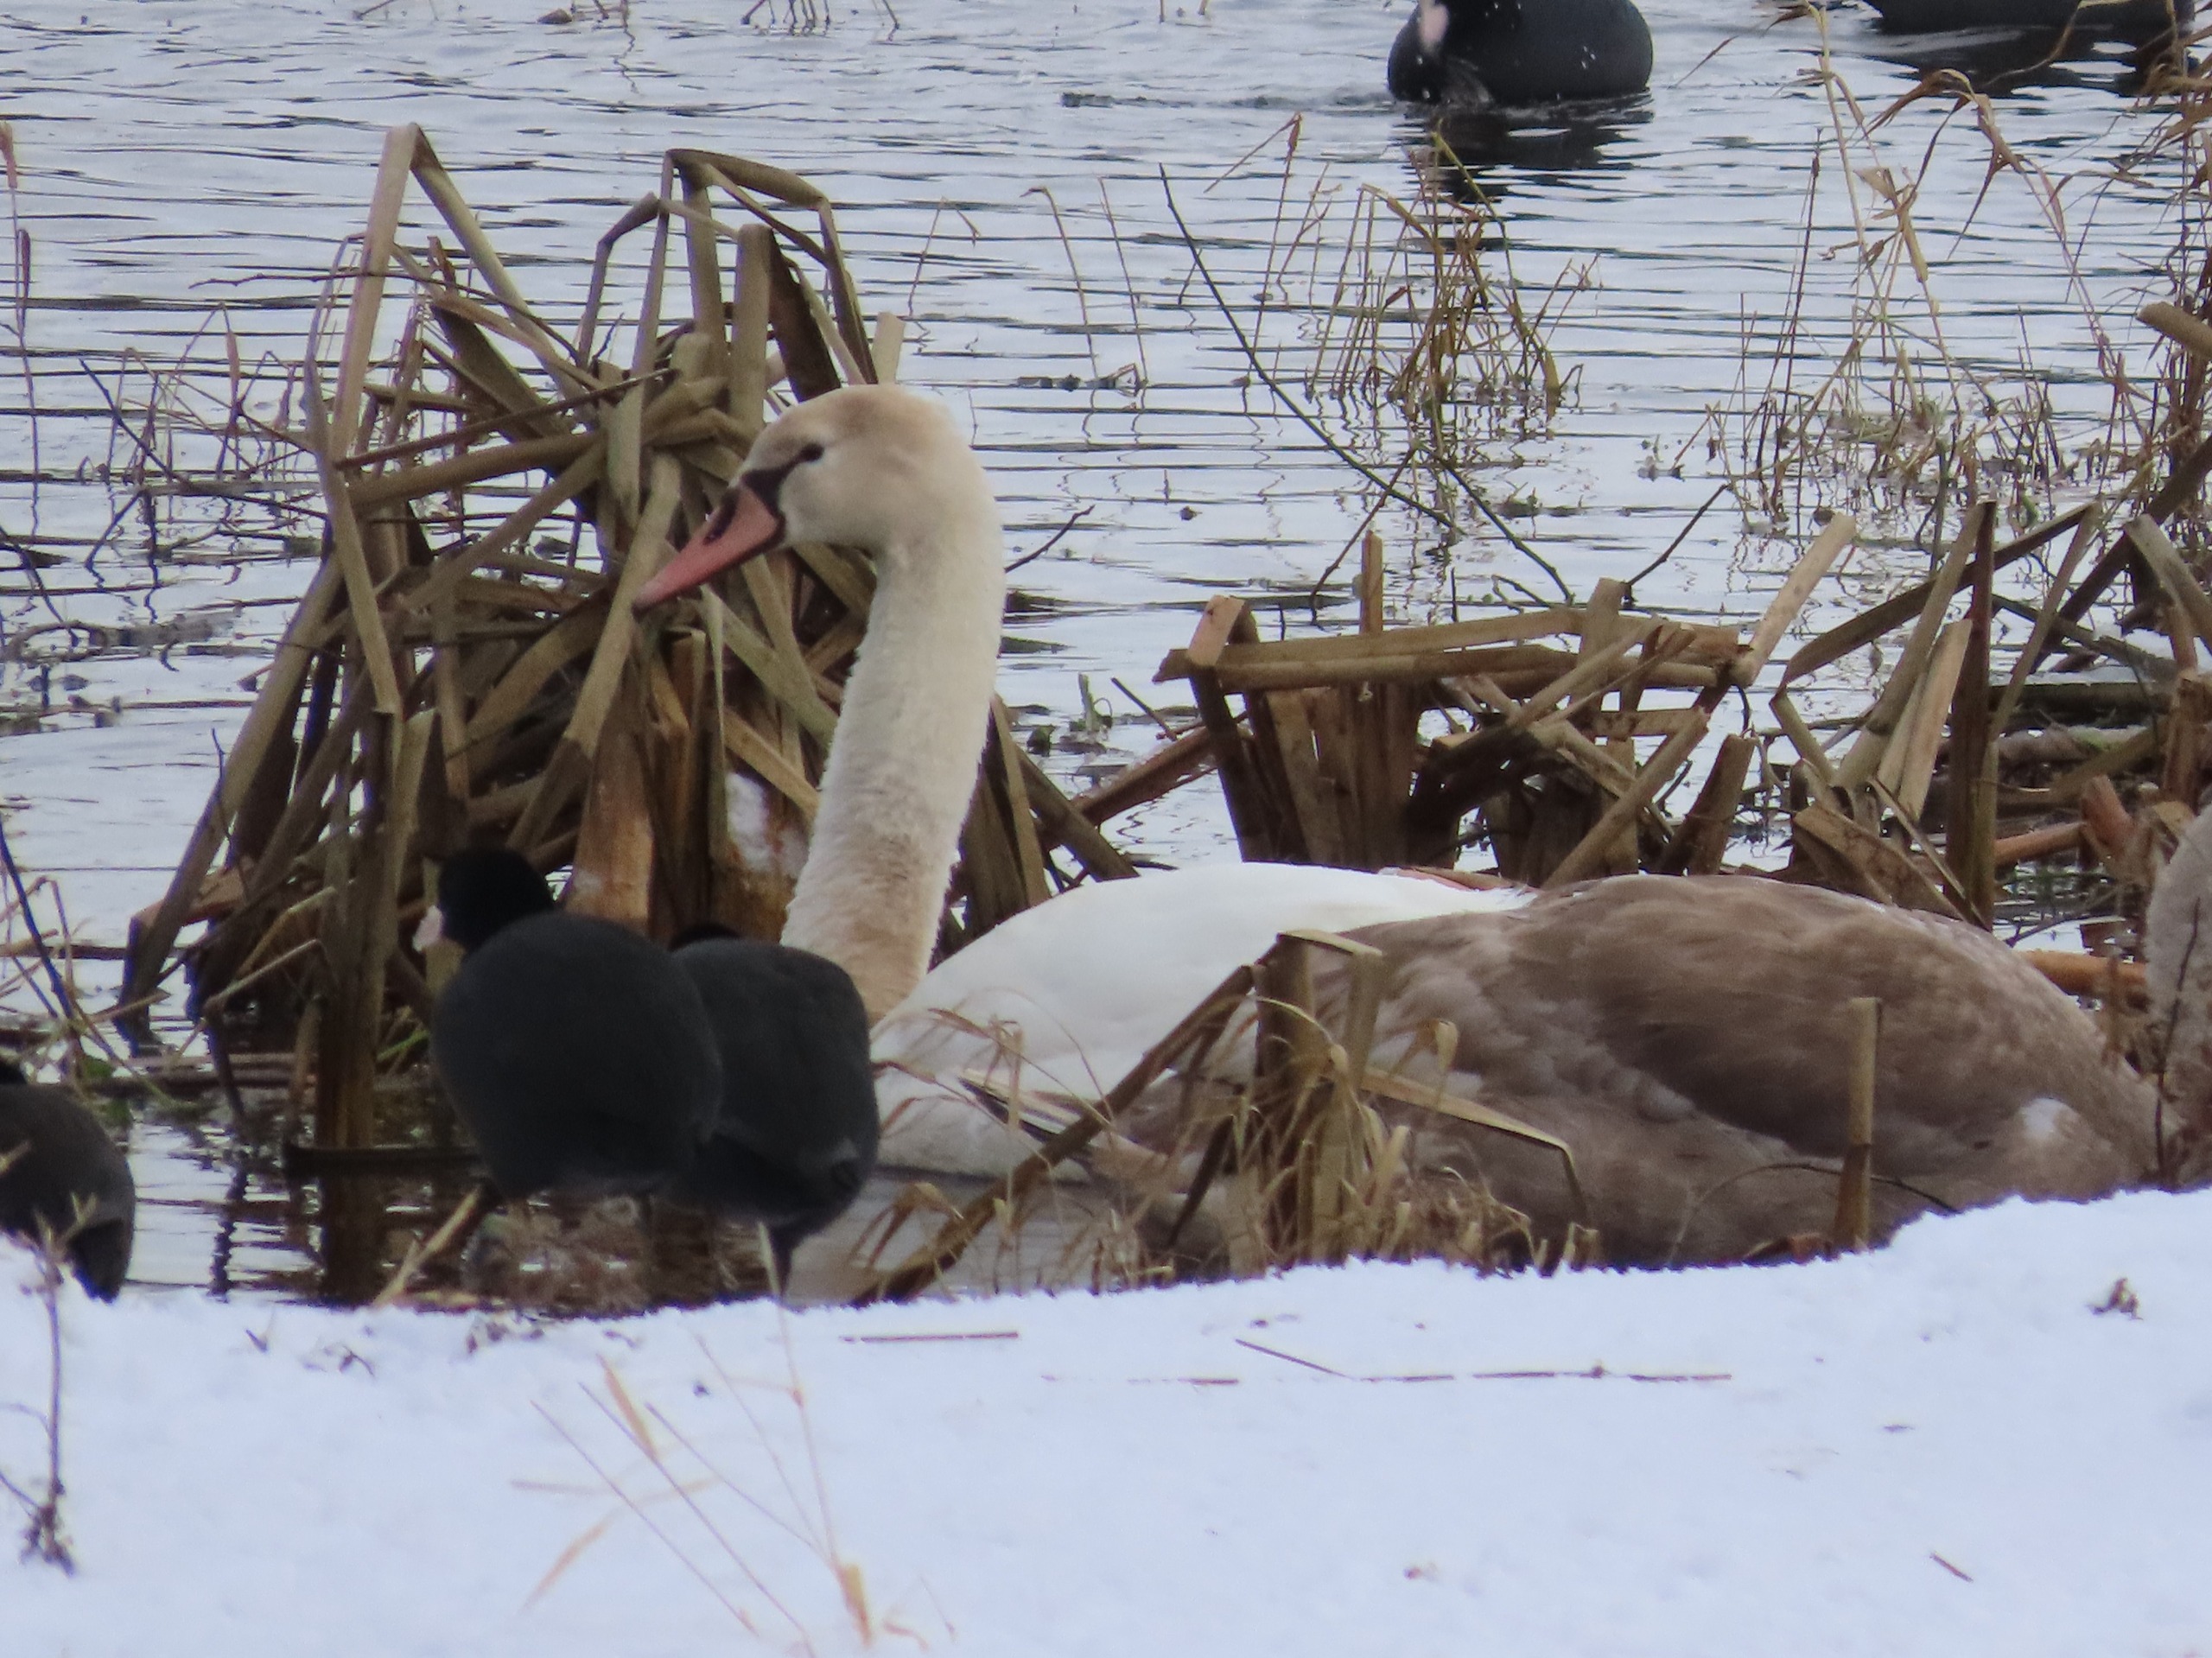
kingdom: Animalia
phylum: Chordata
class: Aves
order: Anseriformes
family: Anatidae
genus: Cygnus
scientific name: Cygnus olor
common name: Knopsvane
